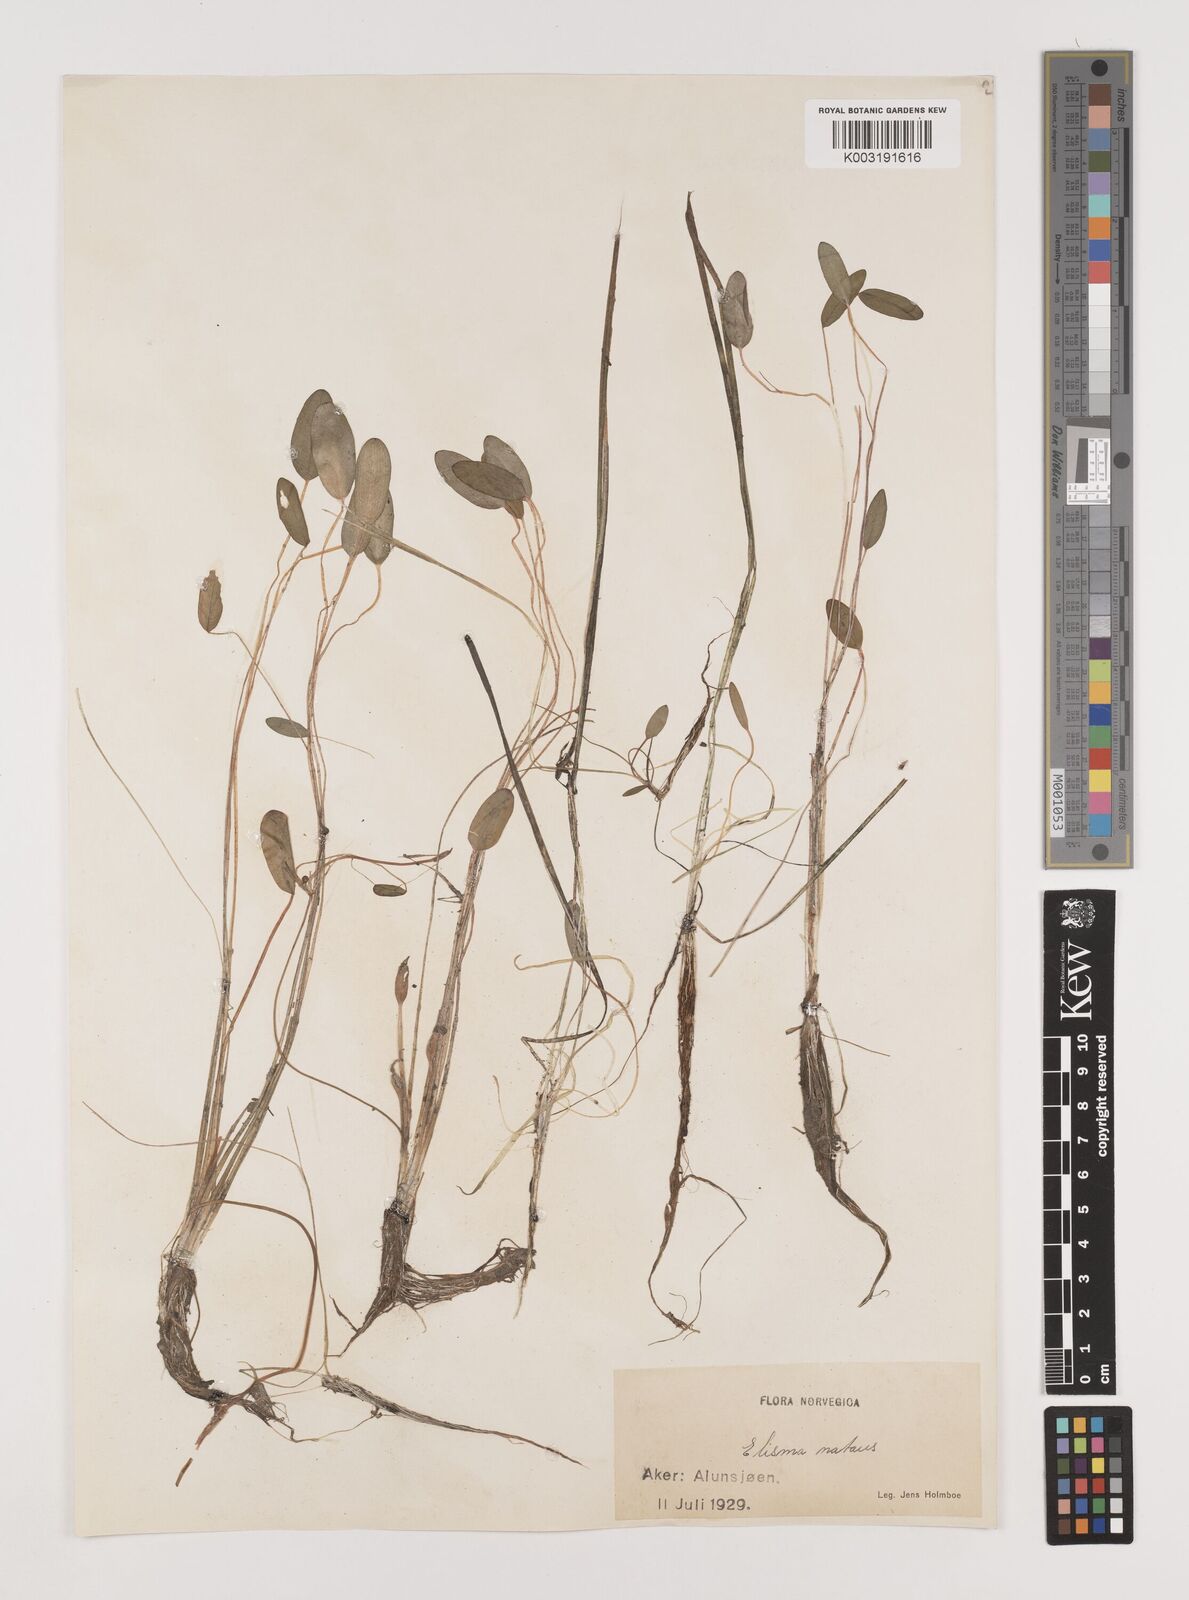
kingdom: Plantae
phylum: Tracheophyta
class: Liliopsida
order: Alismatales
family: Alismataceae
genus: Luronium
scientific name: Luronium natans
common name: Floating water-plantain
